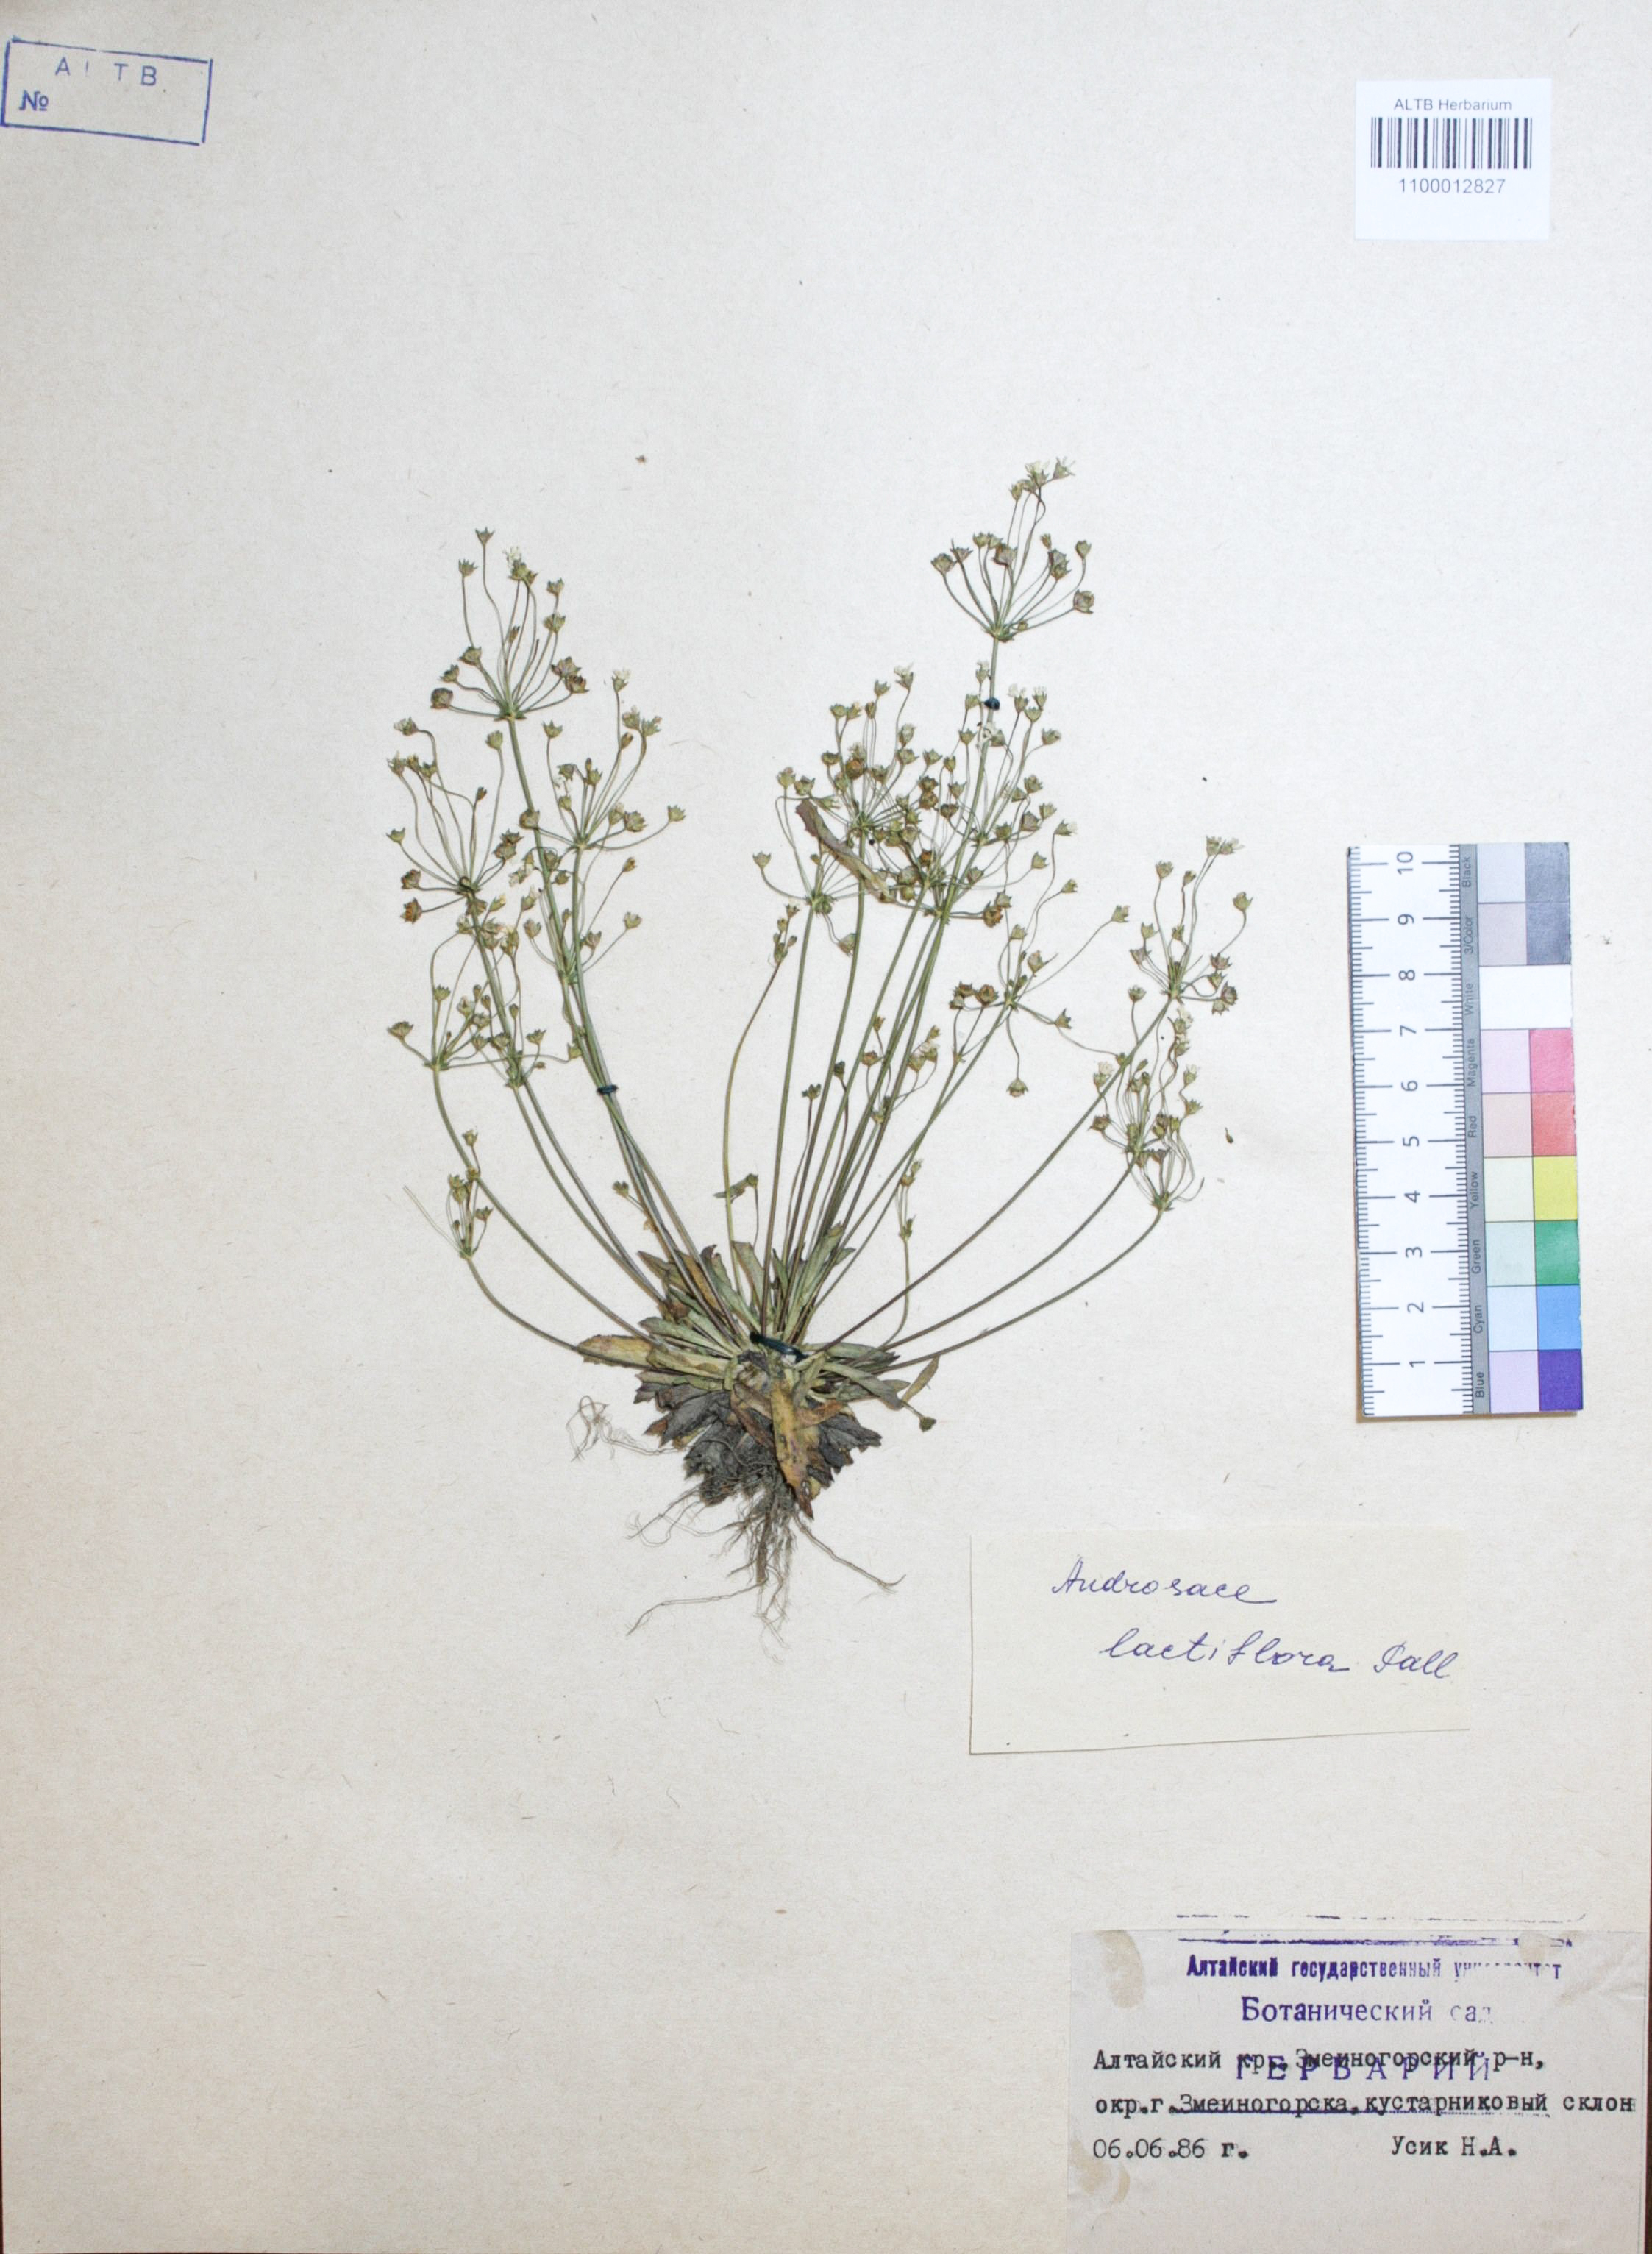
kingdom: Plantae
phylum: Tracheophyta
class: Magnoliopsida
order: Ericales
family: Primulaceae
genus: Androsace
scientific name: Androsace lactiflora
